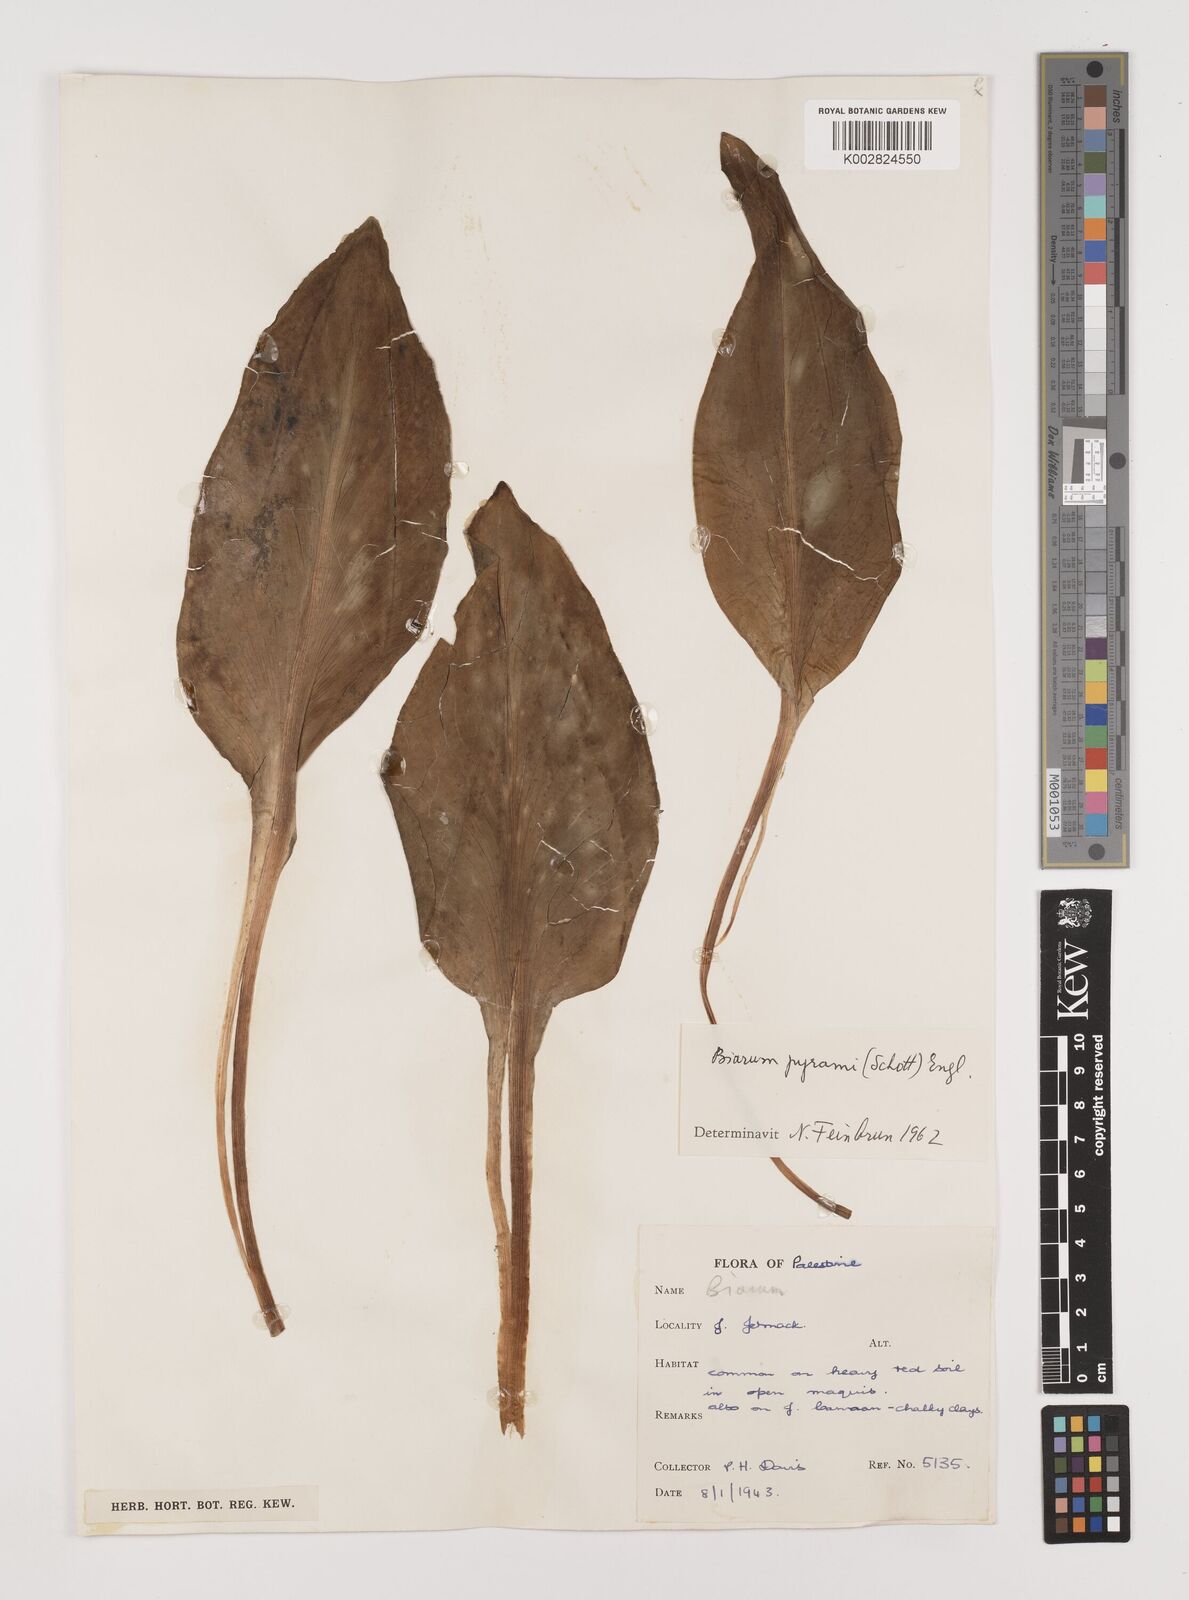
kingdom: Plantae
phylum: Tracheophyta
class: Liliopsida
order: Alismatales
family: Araceae
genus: Biarum
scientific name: Biarum pyrami
